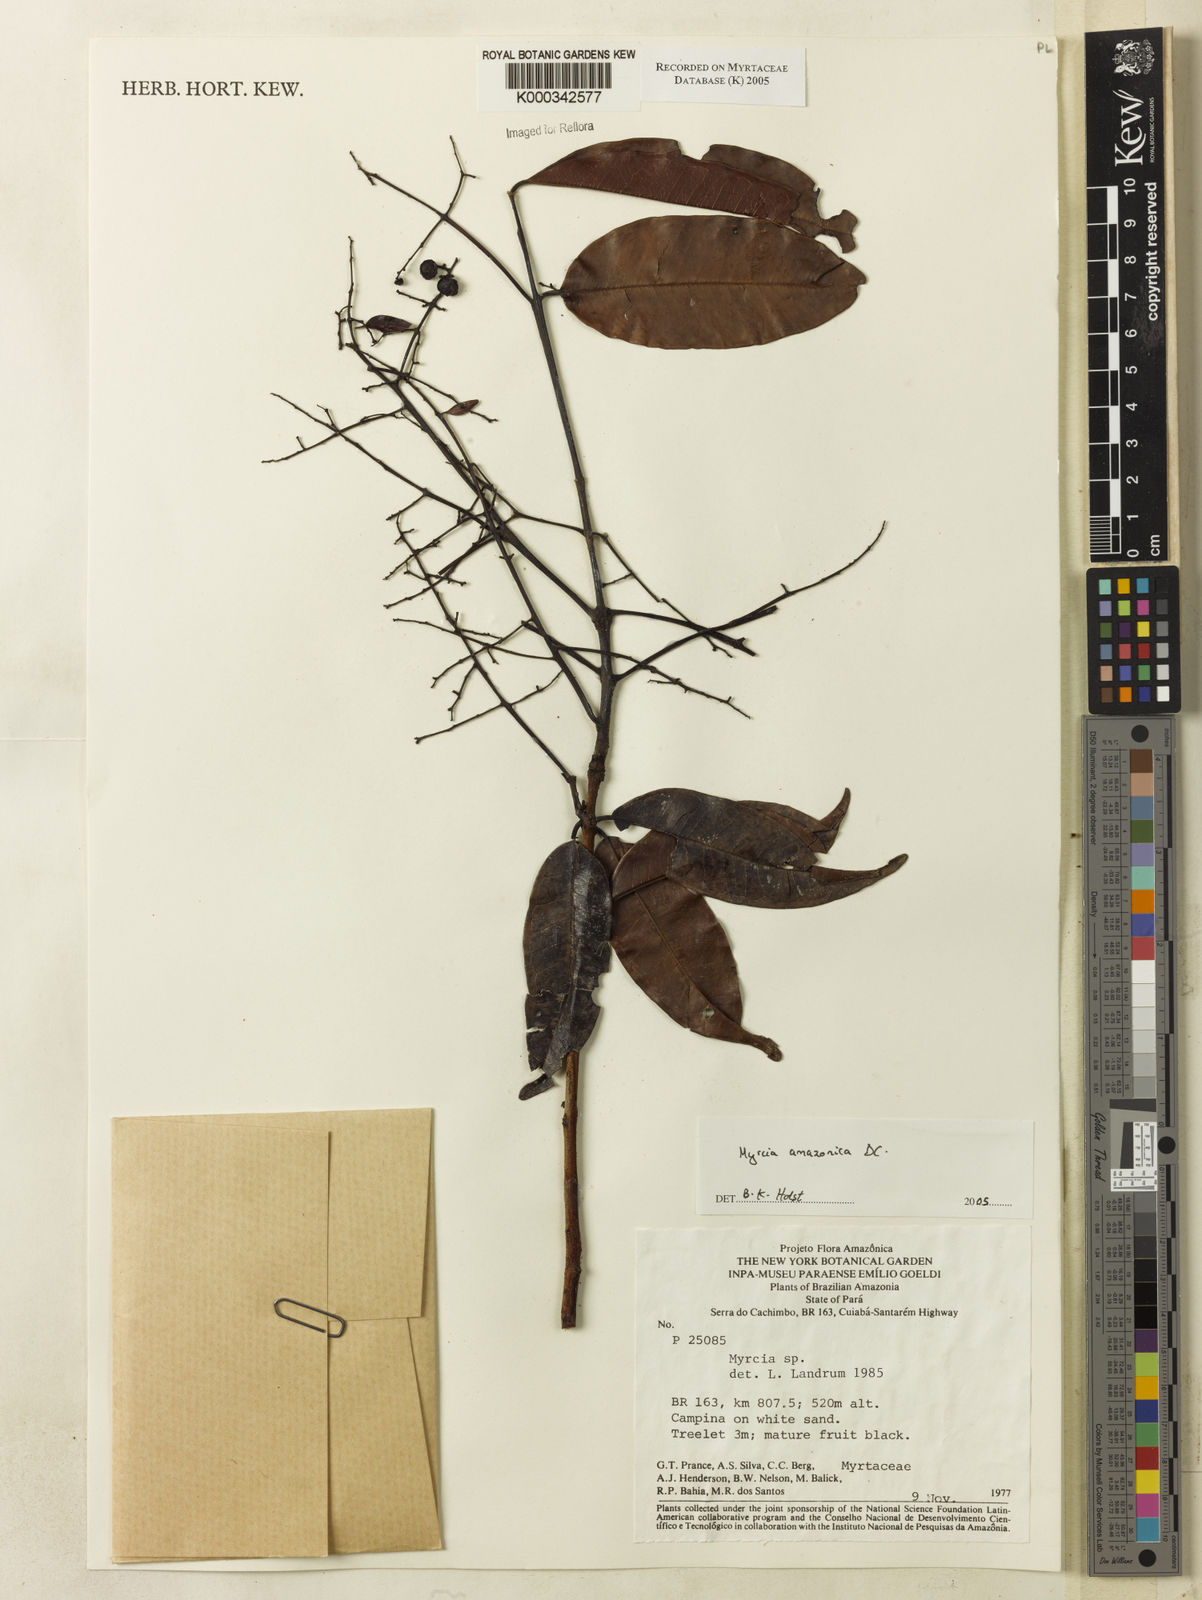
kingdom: Plantae
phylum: Tracheophyta
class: Magnoliopsida
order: Myrtales
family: Myrtaceae
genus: Myrcia
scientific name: Myrcia amazonica
